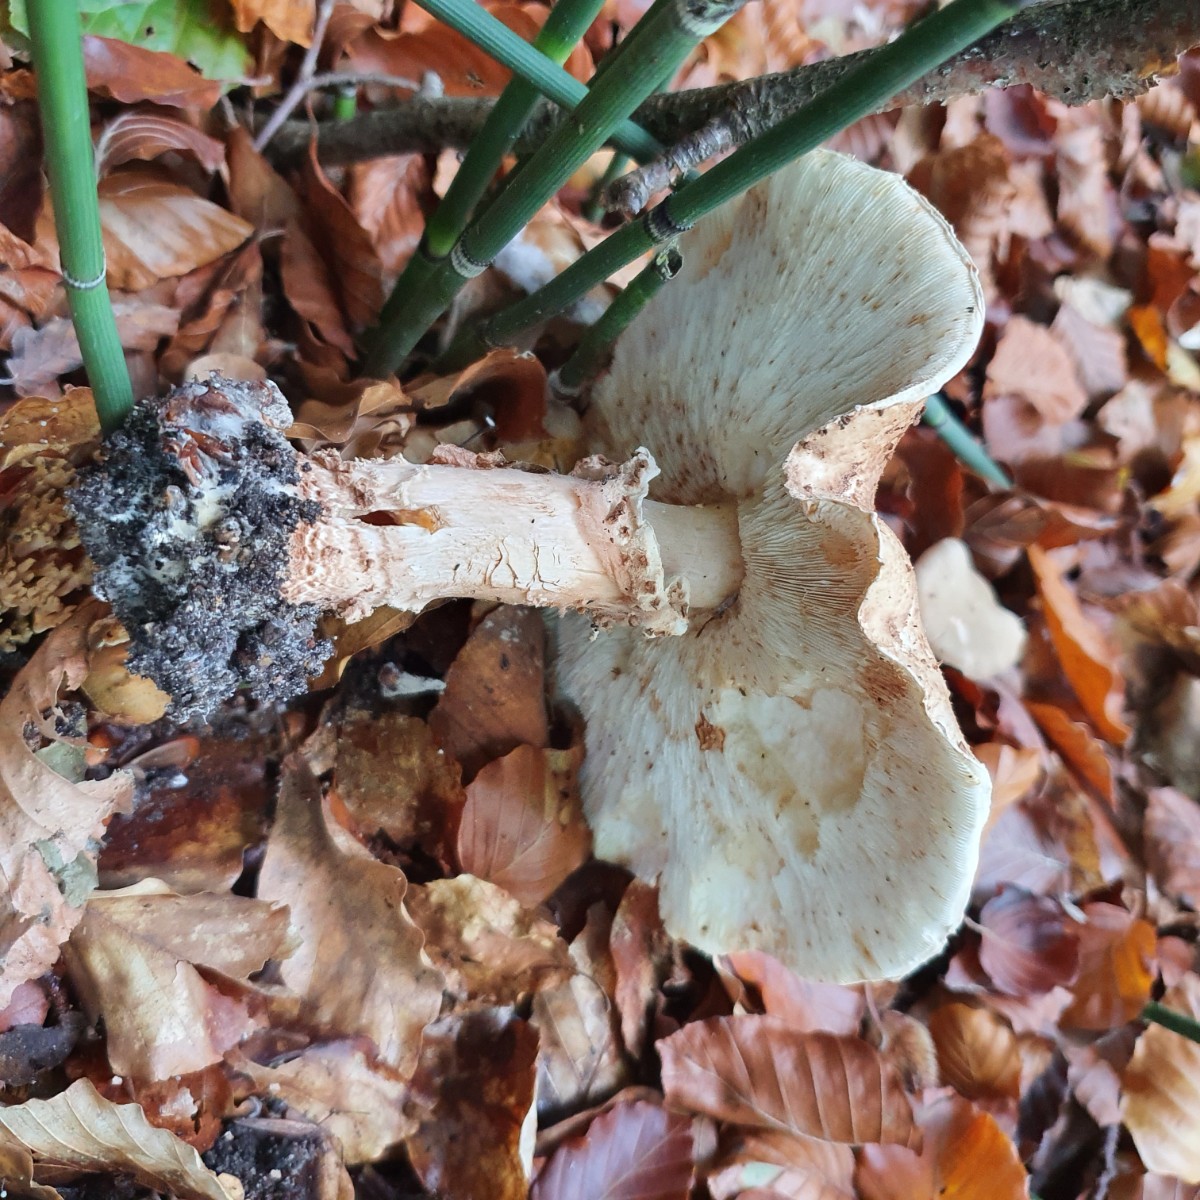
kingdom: Fungi
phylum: Basidiomycota
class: Agaricomycetes
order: Agaricales
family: Agaricaceae
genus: Echinoderma
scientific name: Echinoderma asperum
